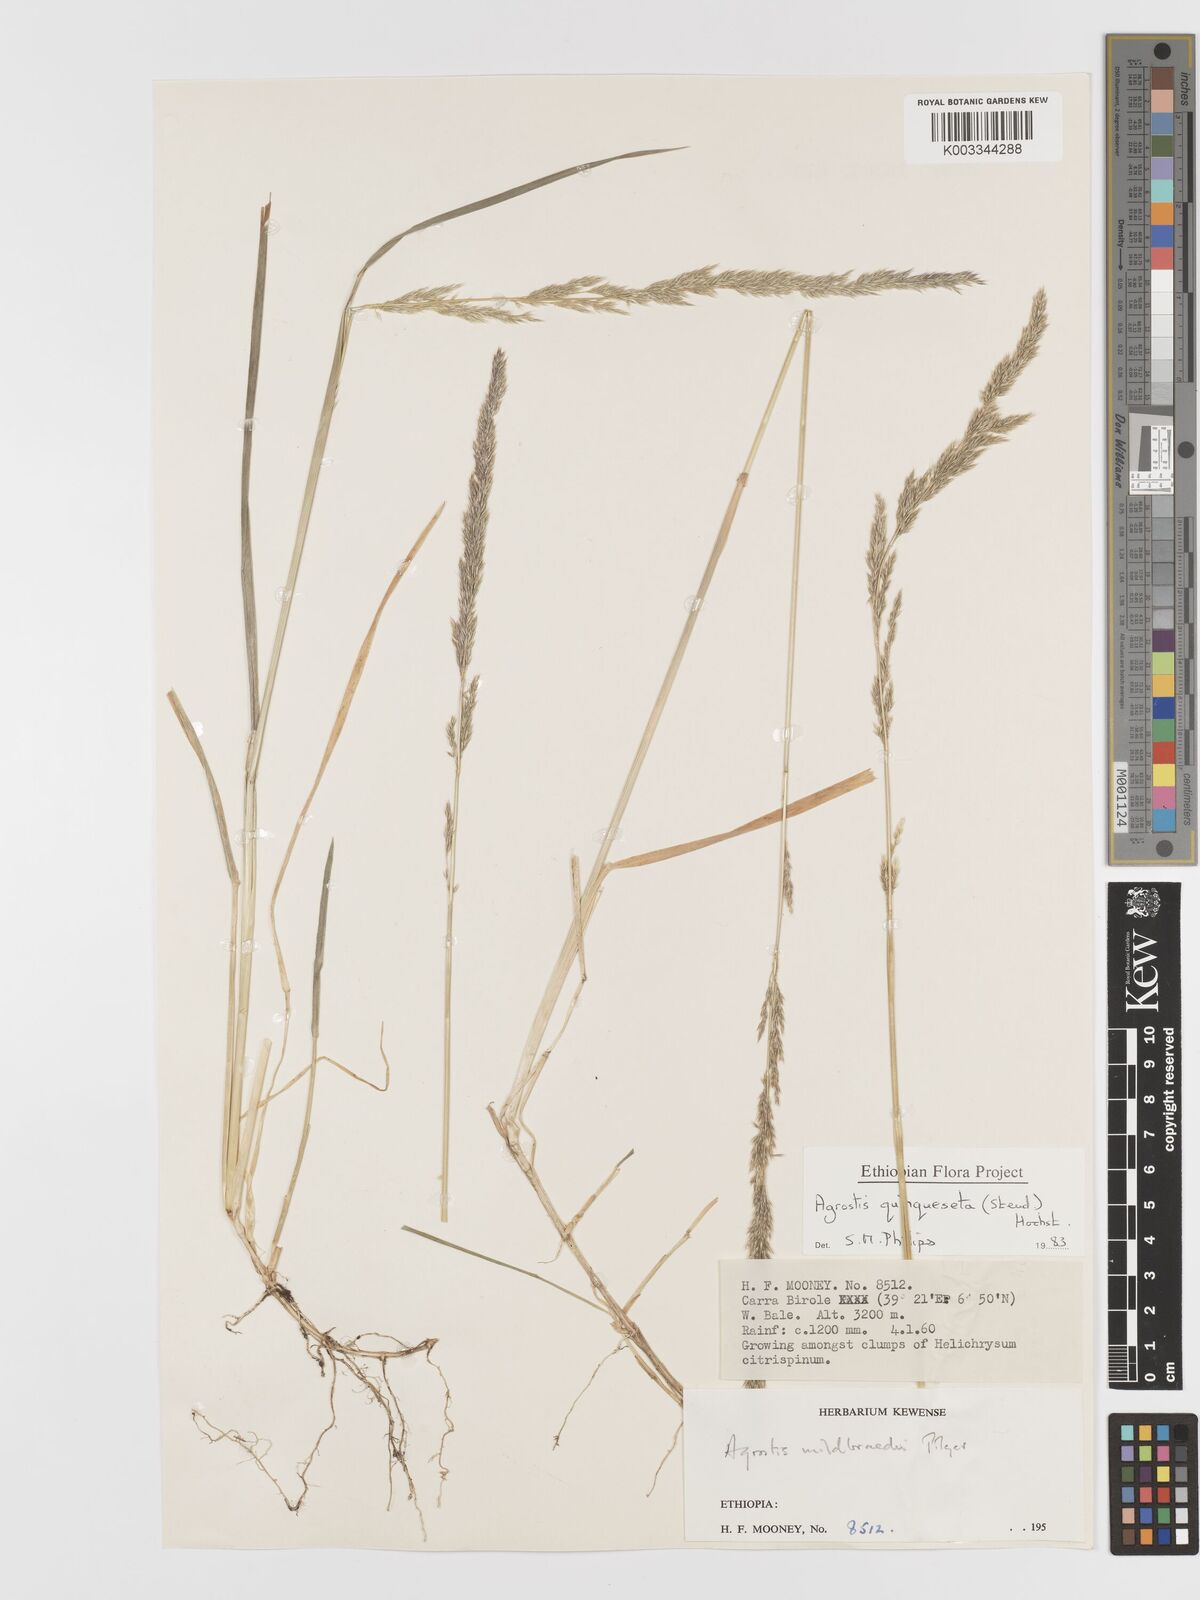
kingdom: Plantae
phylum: Tracheophyta
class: Liliopsida
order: Poales
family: Poaceae
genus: Agrostis
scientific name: Agrostis quinqueseta
